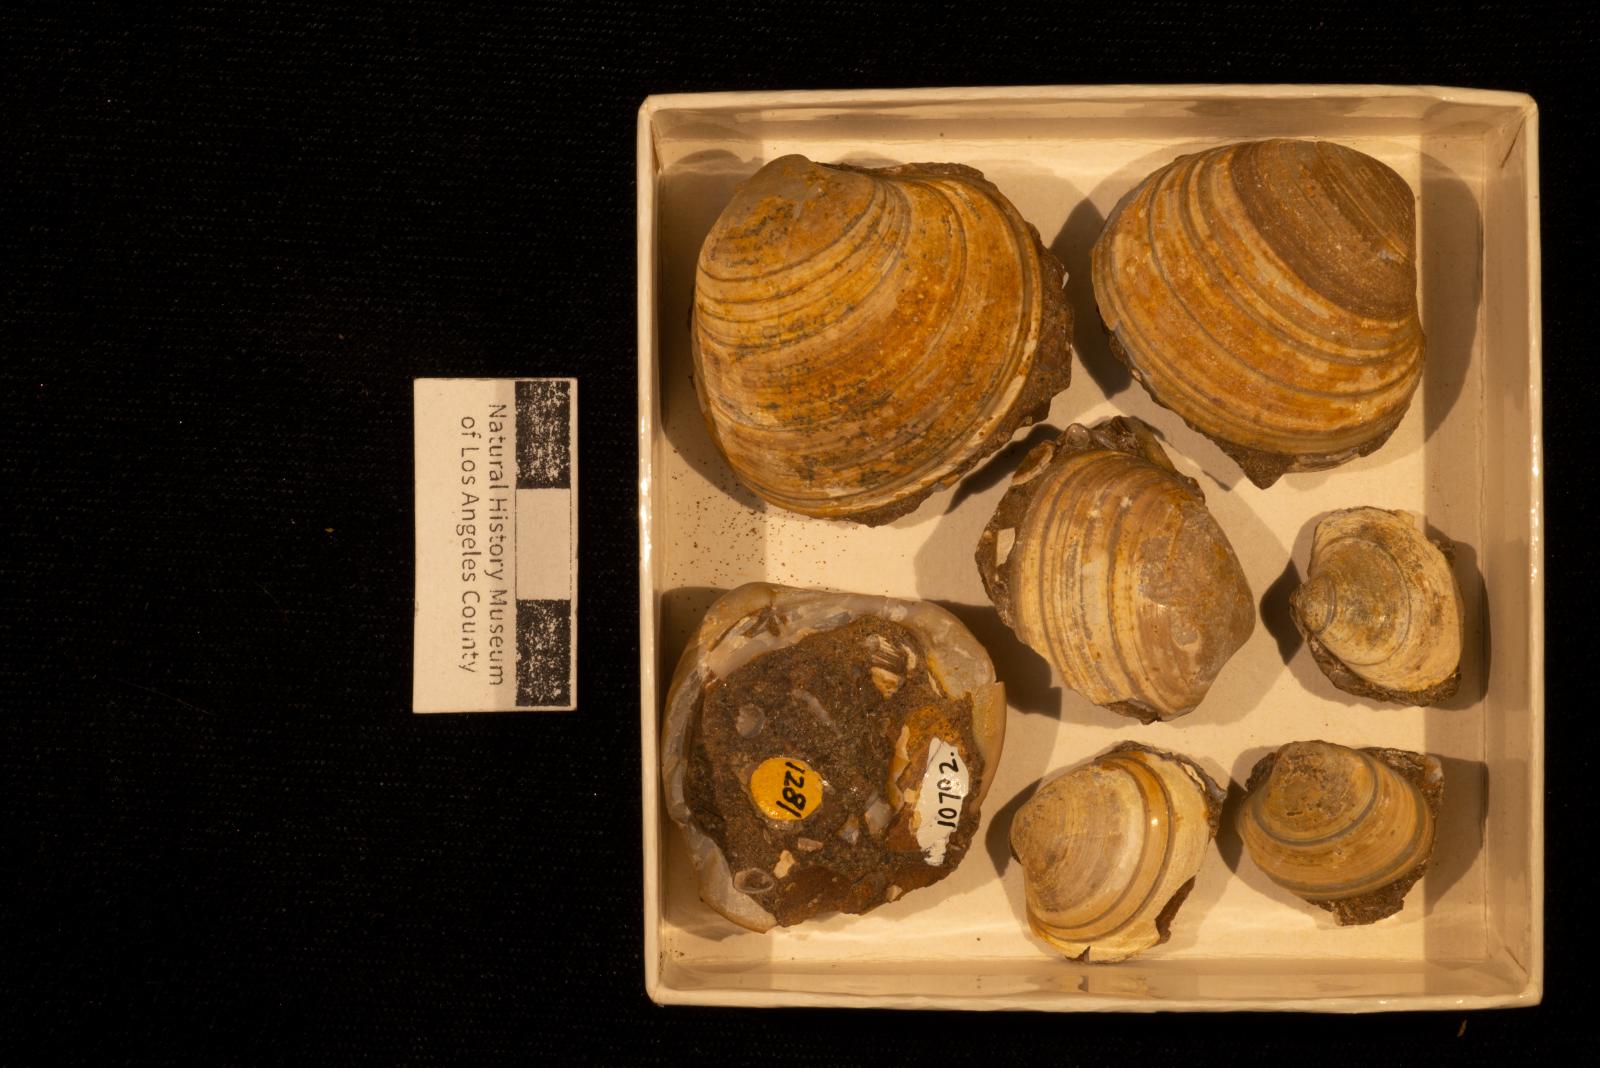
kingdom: Animalia
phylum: Mollusca
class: Bivalvia
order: Venerida
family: Veneridae
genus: Calva
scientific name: Calva Trigonocallista taffi
